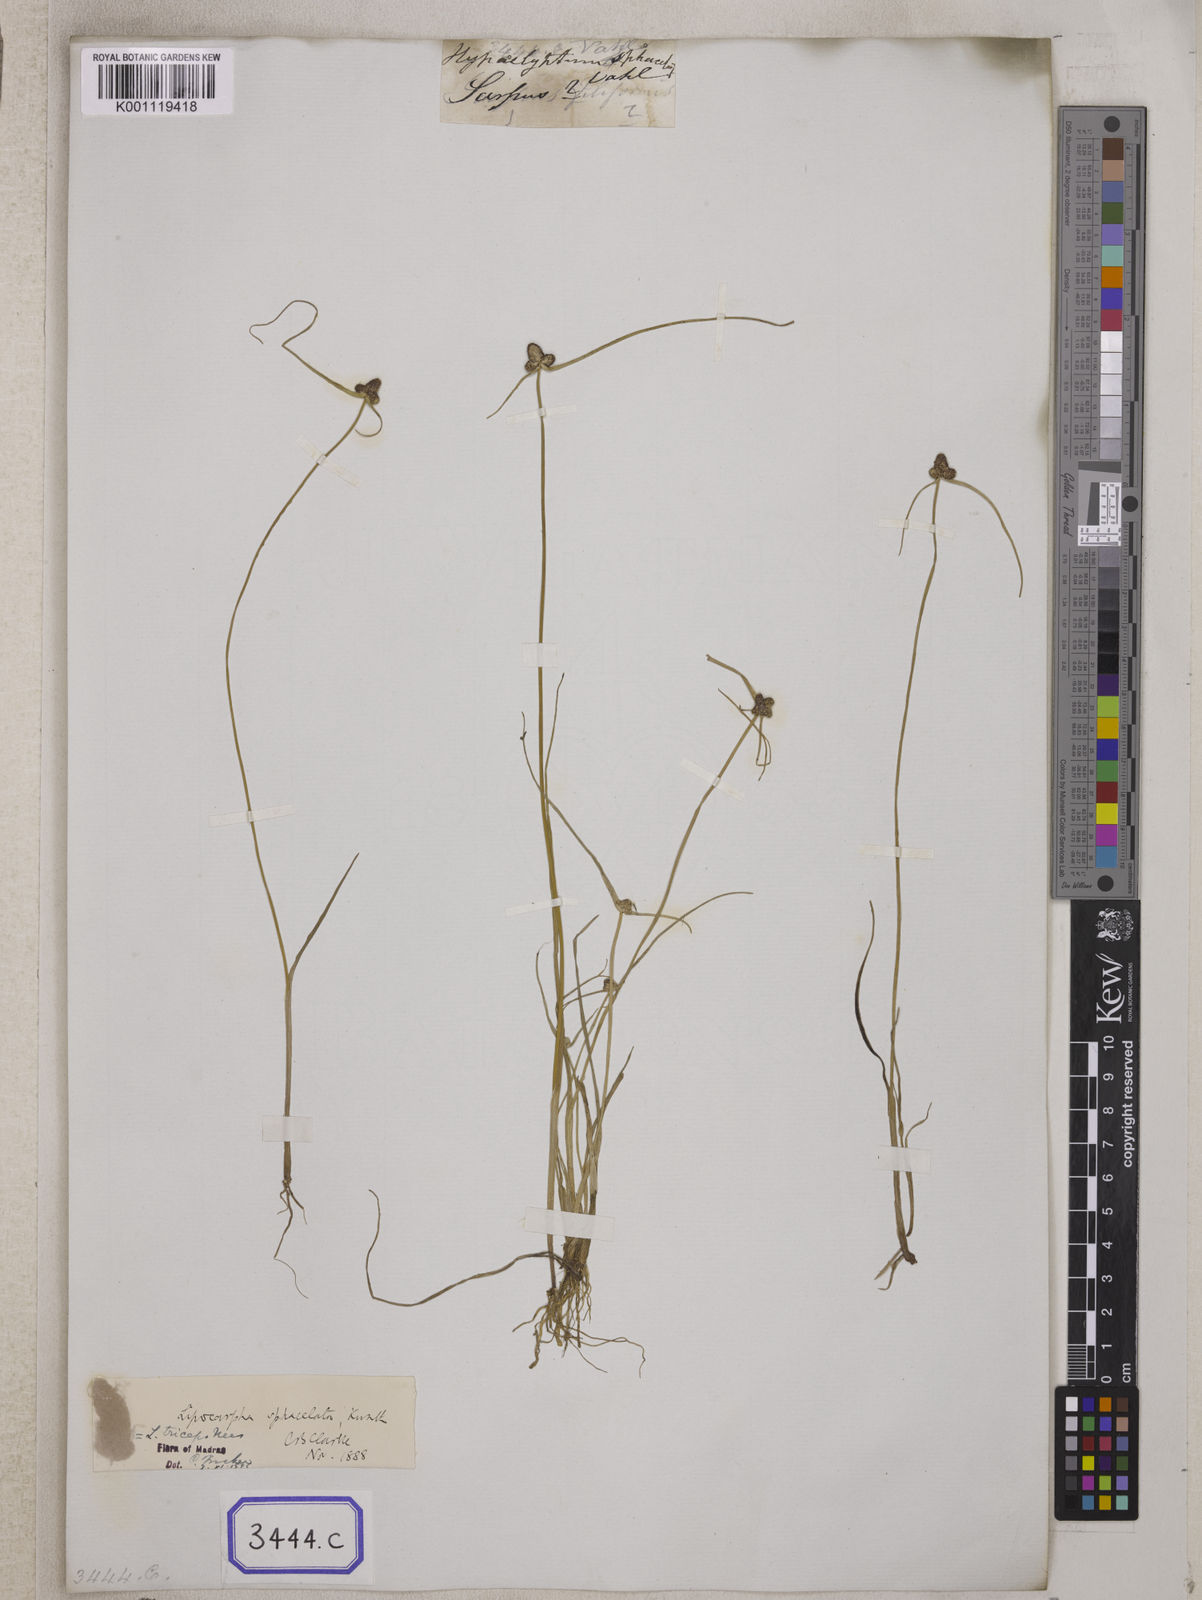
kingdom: Plantae
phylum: Tracheophyta
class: Liliopsida
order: Poales
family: Cyperaceae
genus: Cyperus
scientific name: Cyperus
